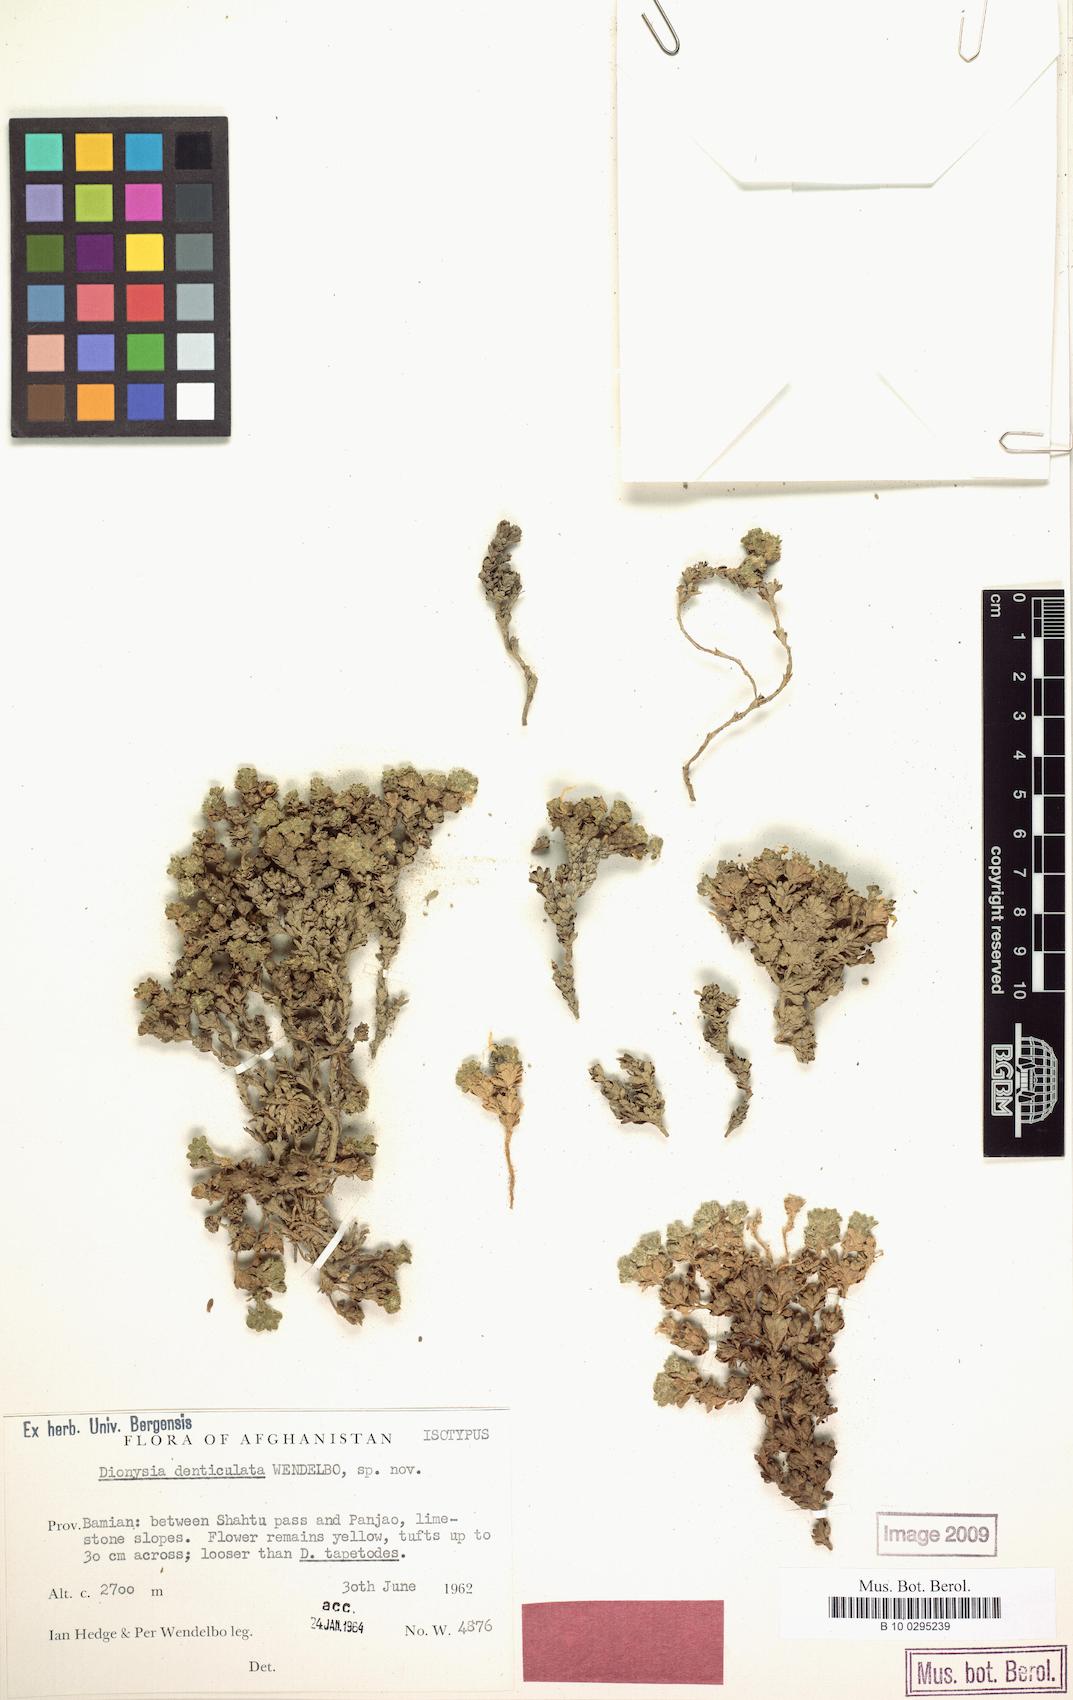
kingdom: Plantae
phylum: Tracheophyta
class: Magnoliopsida
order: Ericales
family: Primulaceae
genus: Dionysia
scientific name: Dionysia denticulata
